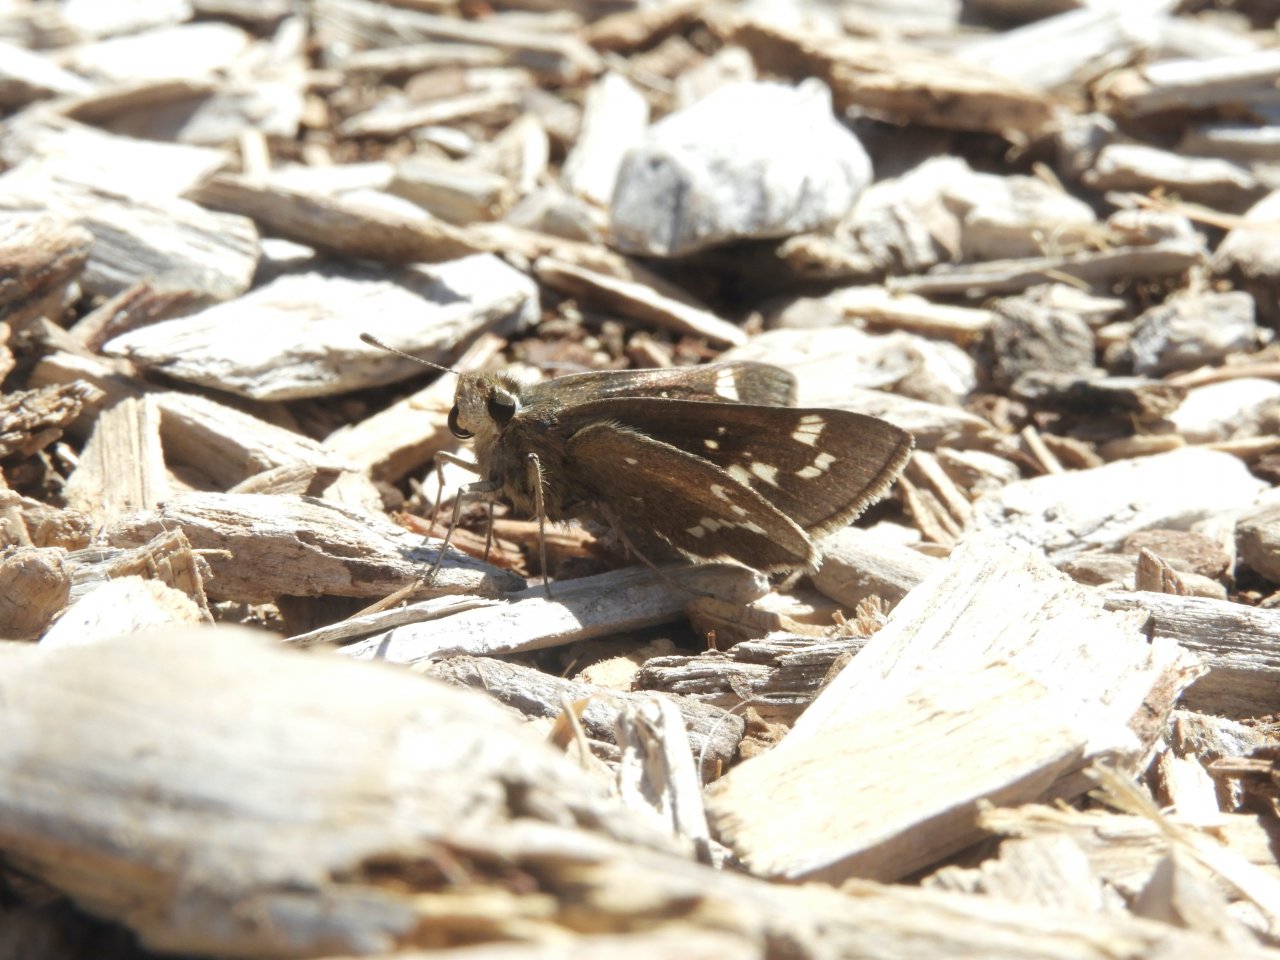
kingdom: Animalia
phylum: Arthropoda
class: Insecta
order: Lepidoptera
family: Hesperiidae
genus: Atrytonopsis
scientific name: Atrytonopsis quinteri
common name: Crystal Skipper
